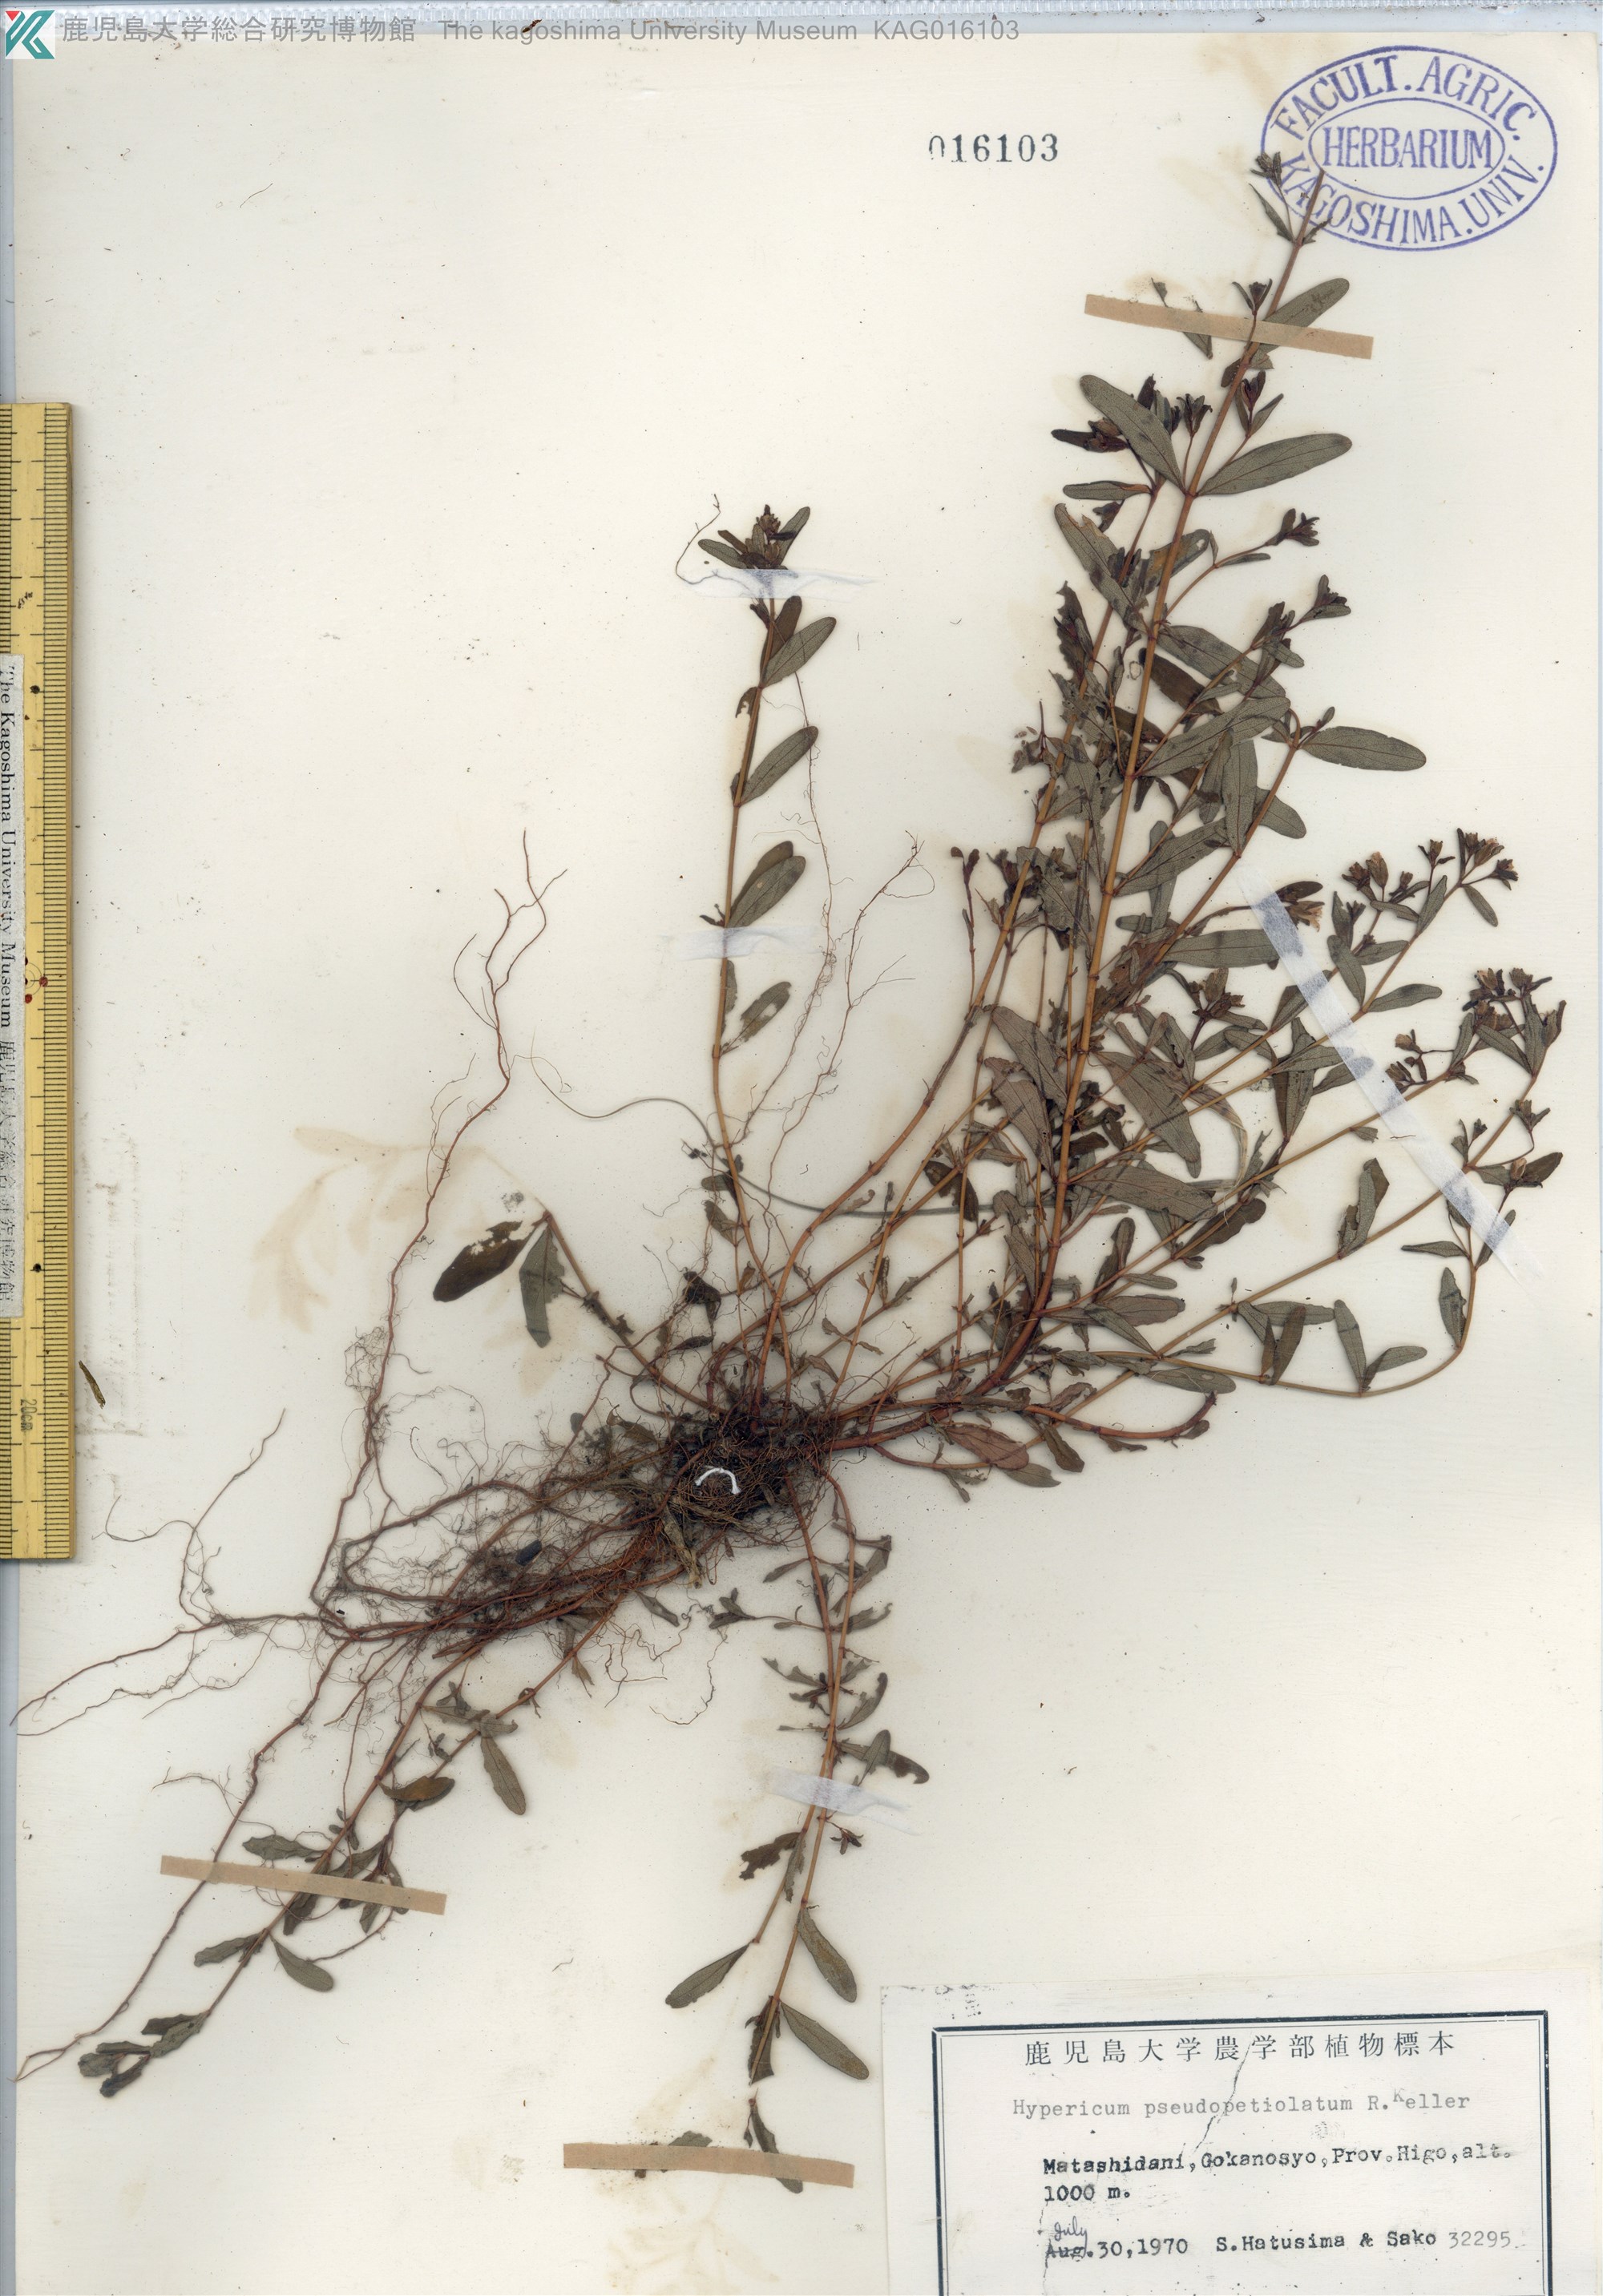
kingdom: Plantae
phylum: Tracheophyta
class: Magnoliopsida
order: Malpighiales
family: Hypericaceae
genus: Hypericum
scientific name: Hypericum pseudopetiolatum
